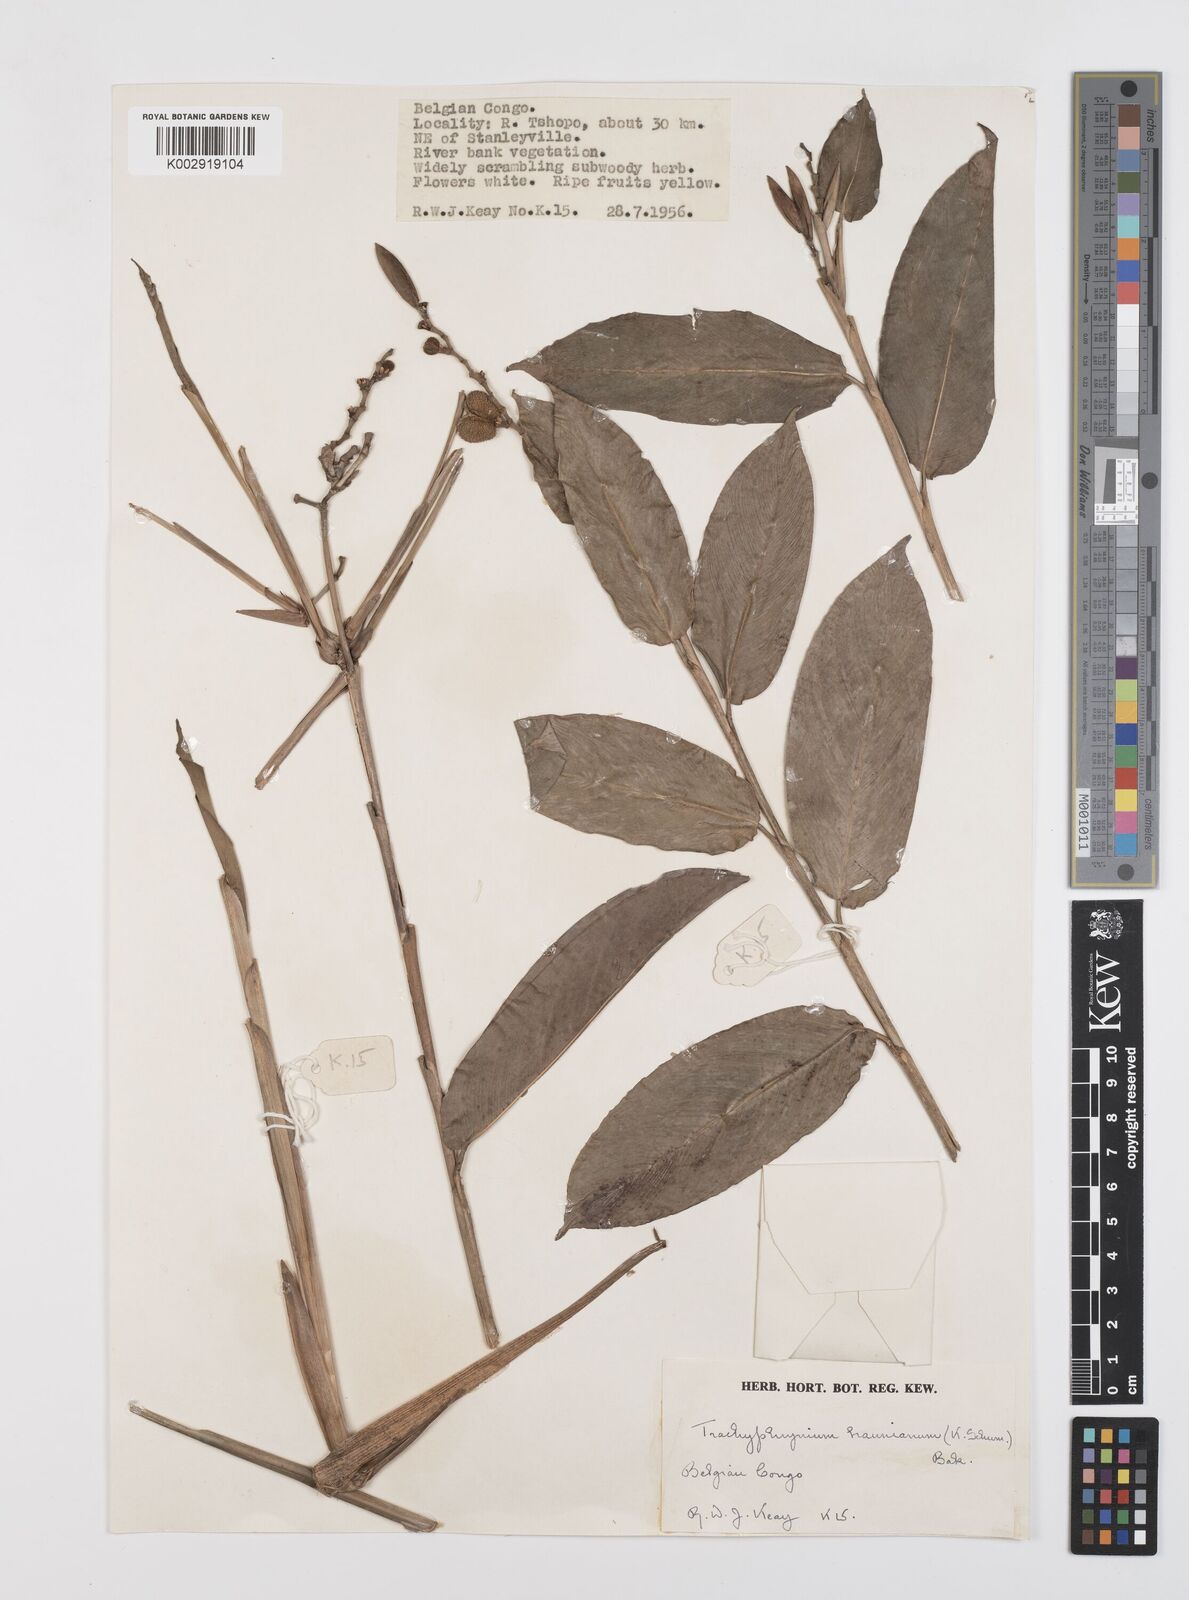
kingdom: Plantae
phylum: Tracheophyta
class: Liliopsida
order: Zingiberales
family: Marantaceae
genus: Trachyphrynium
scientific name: Trachyphrynium braunianum
